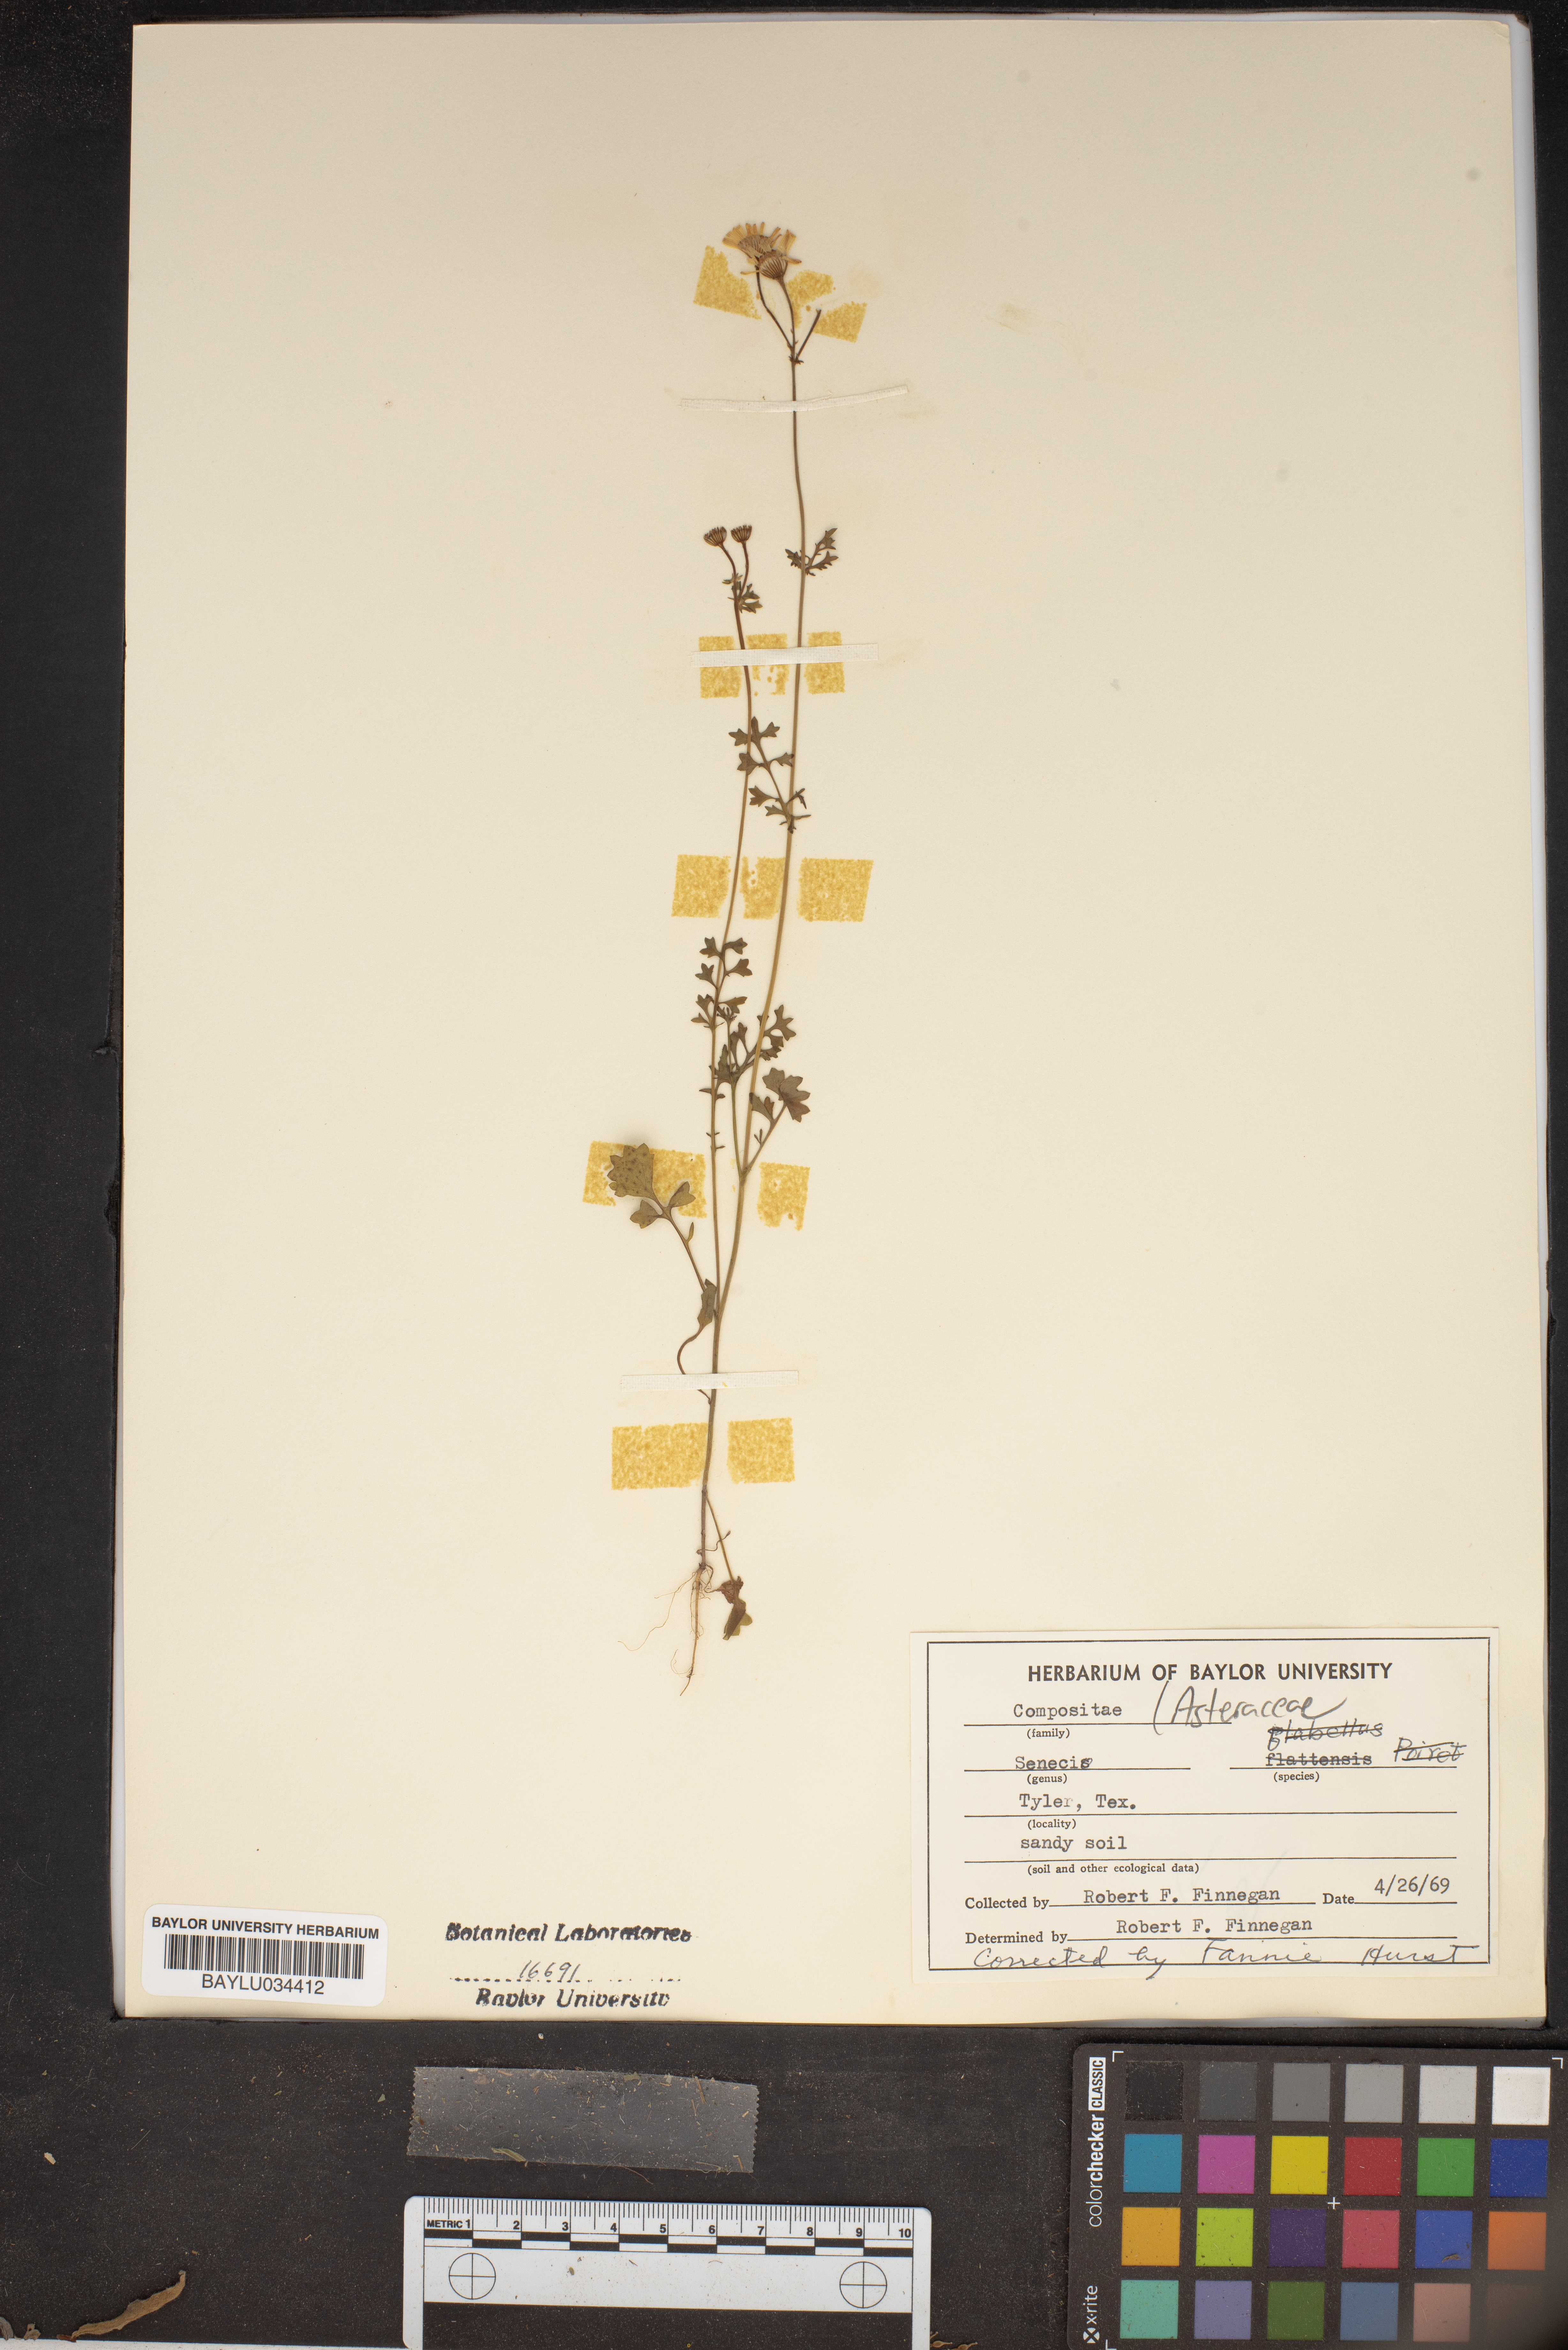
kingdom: Plantae
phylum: Tracheophyta
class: Magnoliopsida
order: Asterales
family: Asteraceae
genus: Senecio
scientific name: Senecio
